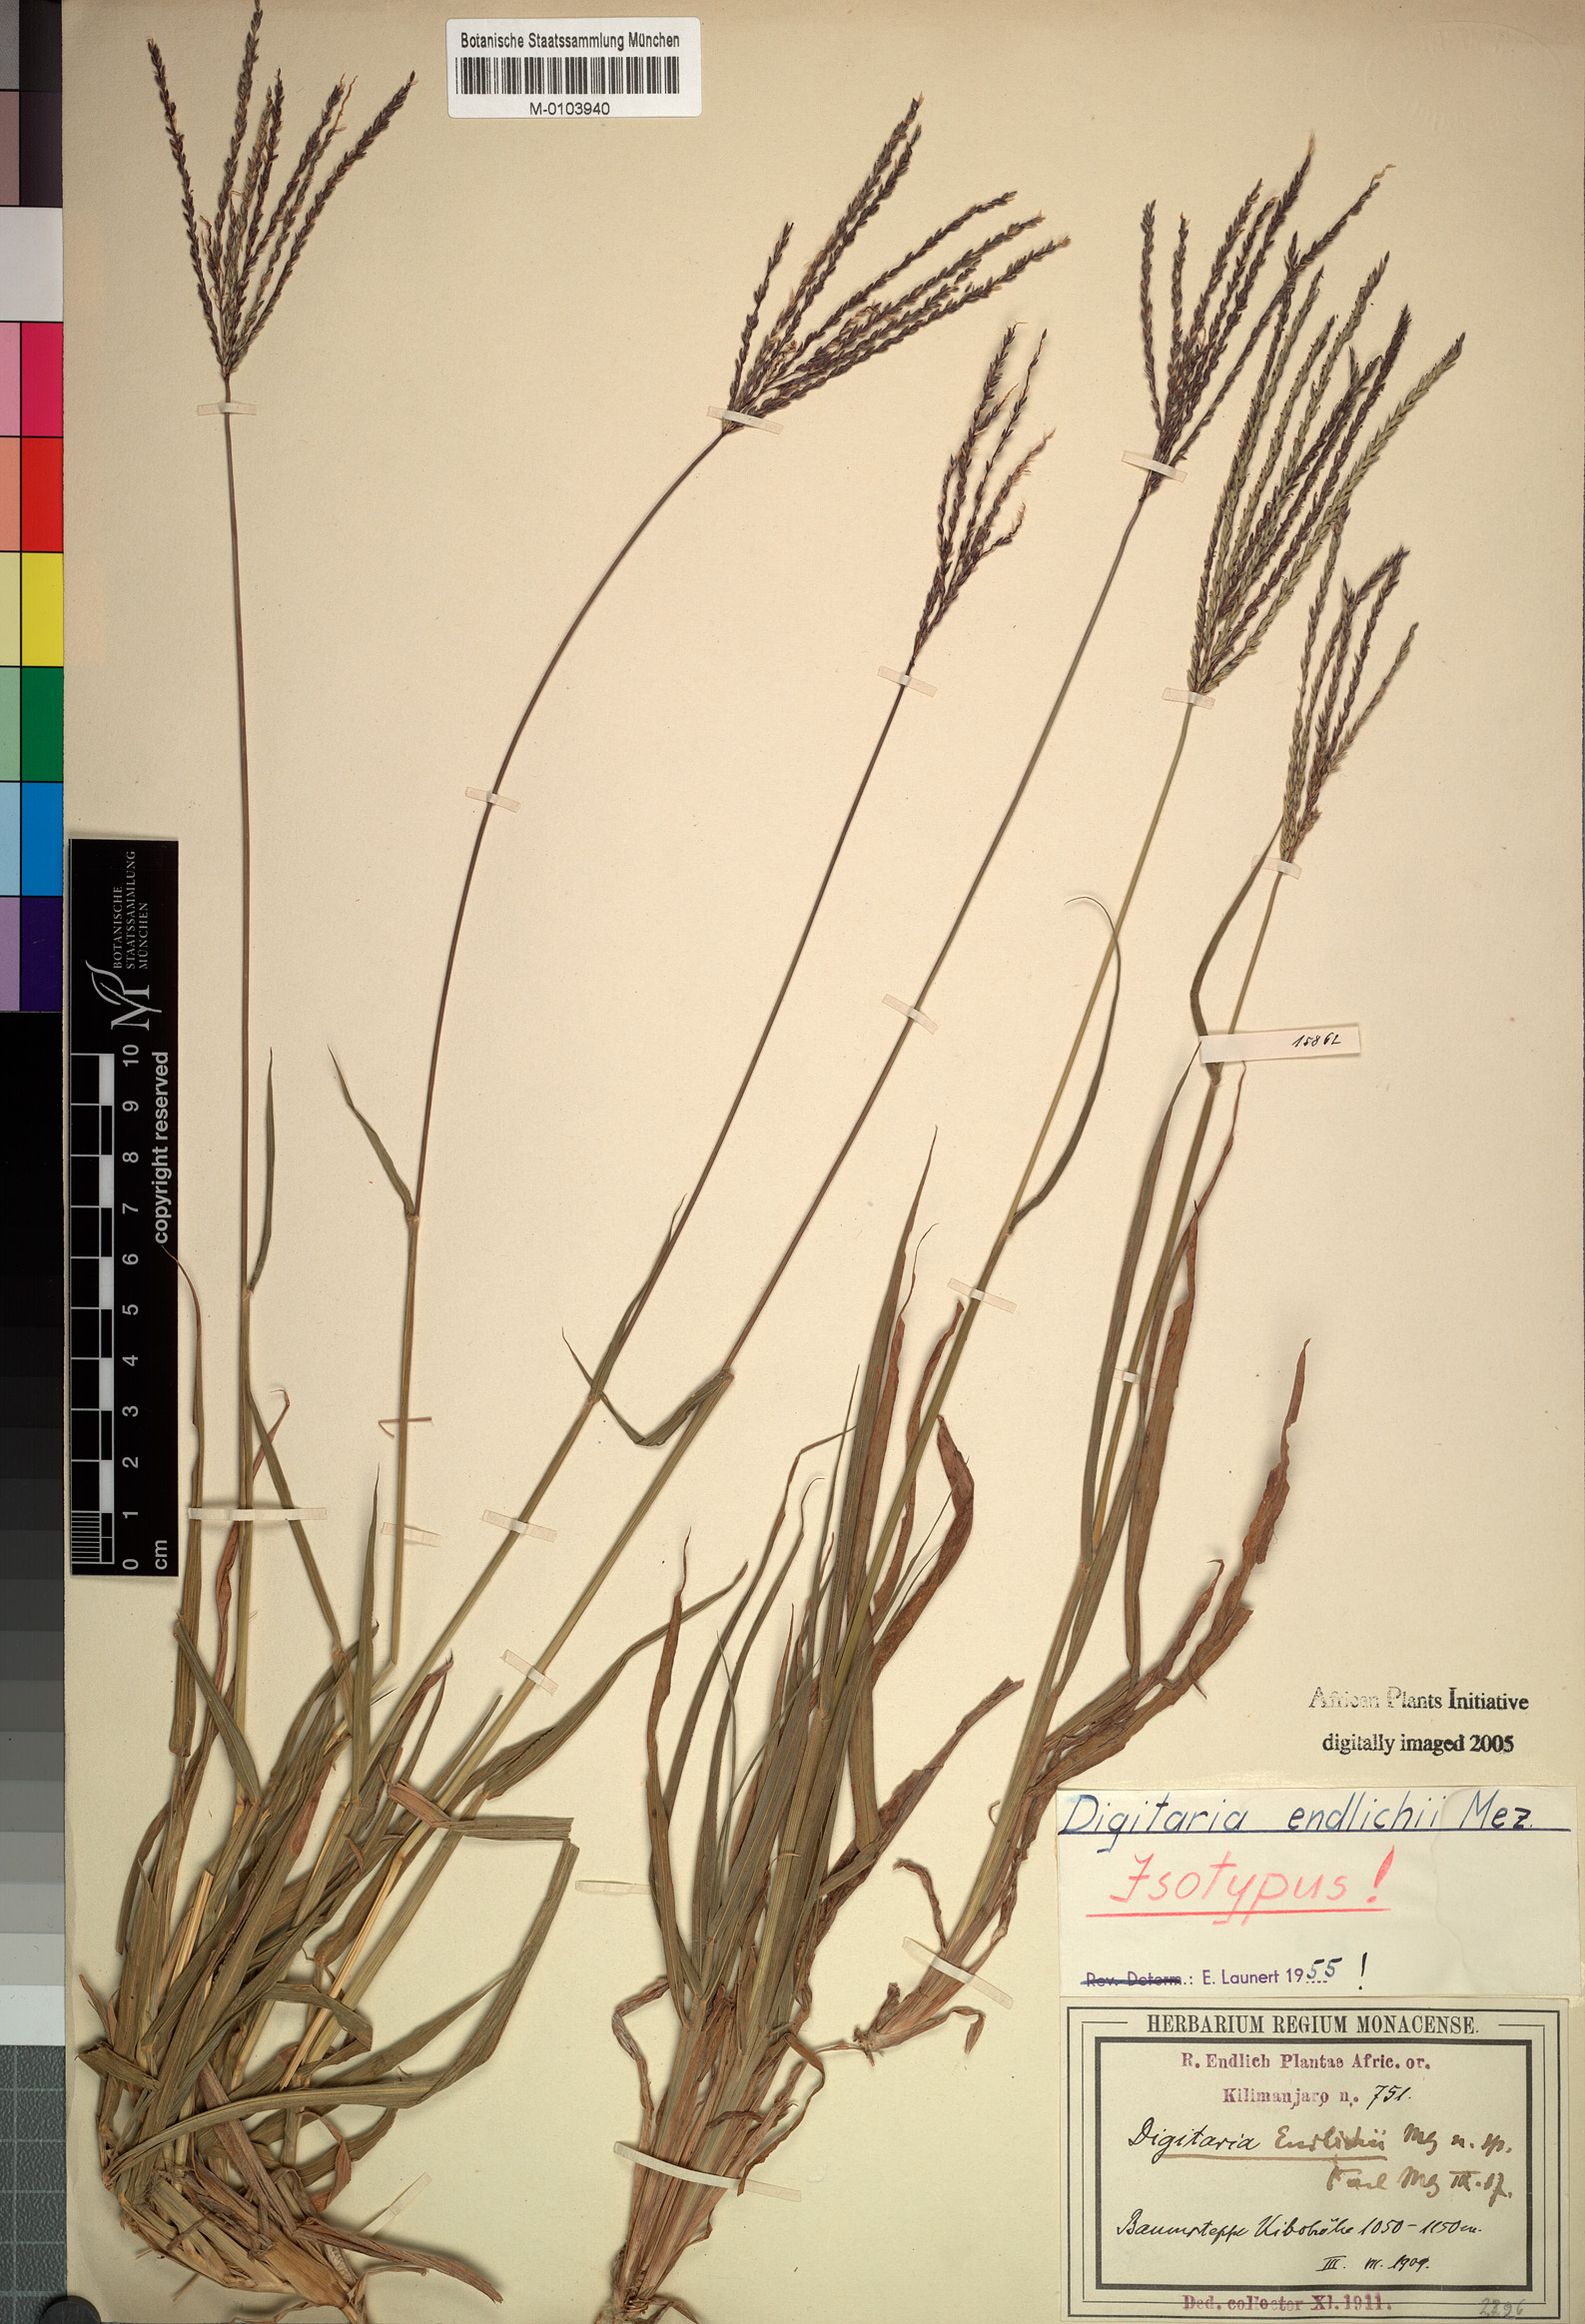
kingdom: Plantae
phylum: Tracheophyta
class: Liliopsida
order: Poales
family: Poaceae
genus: Digitaria
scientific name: Digitaria milanjiana
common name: Madagascar crabgrass
